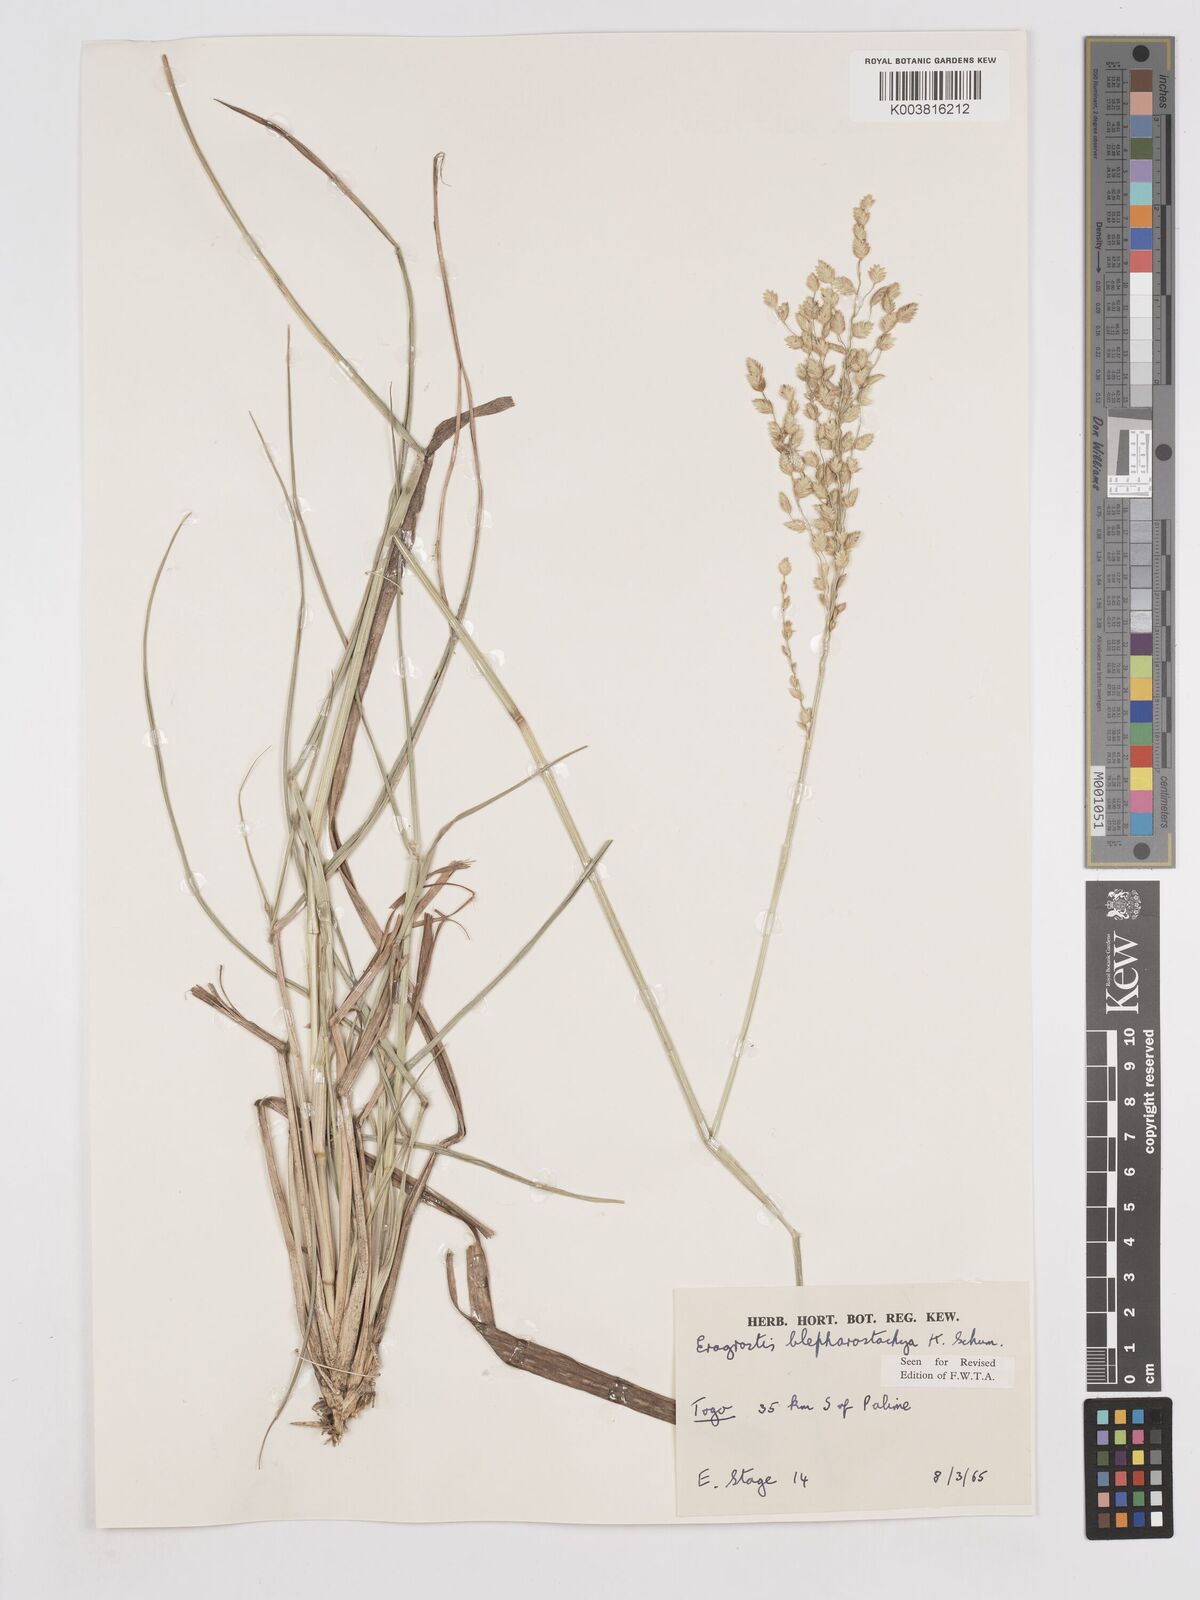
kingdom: Plantae
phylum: Tracheophyta
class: Liliopsida
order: Poales
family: Poaceae
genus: Eragrostis
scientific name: Eragrostis blepharostachya
